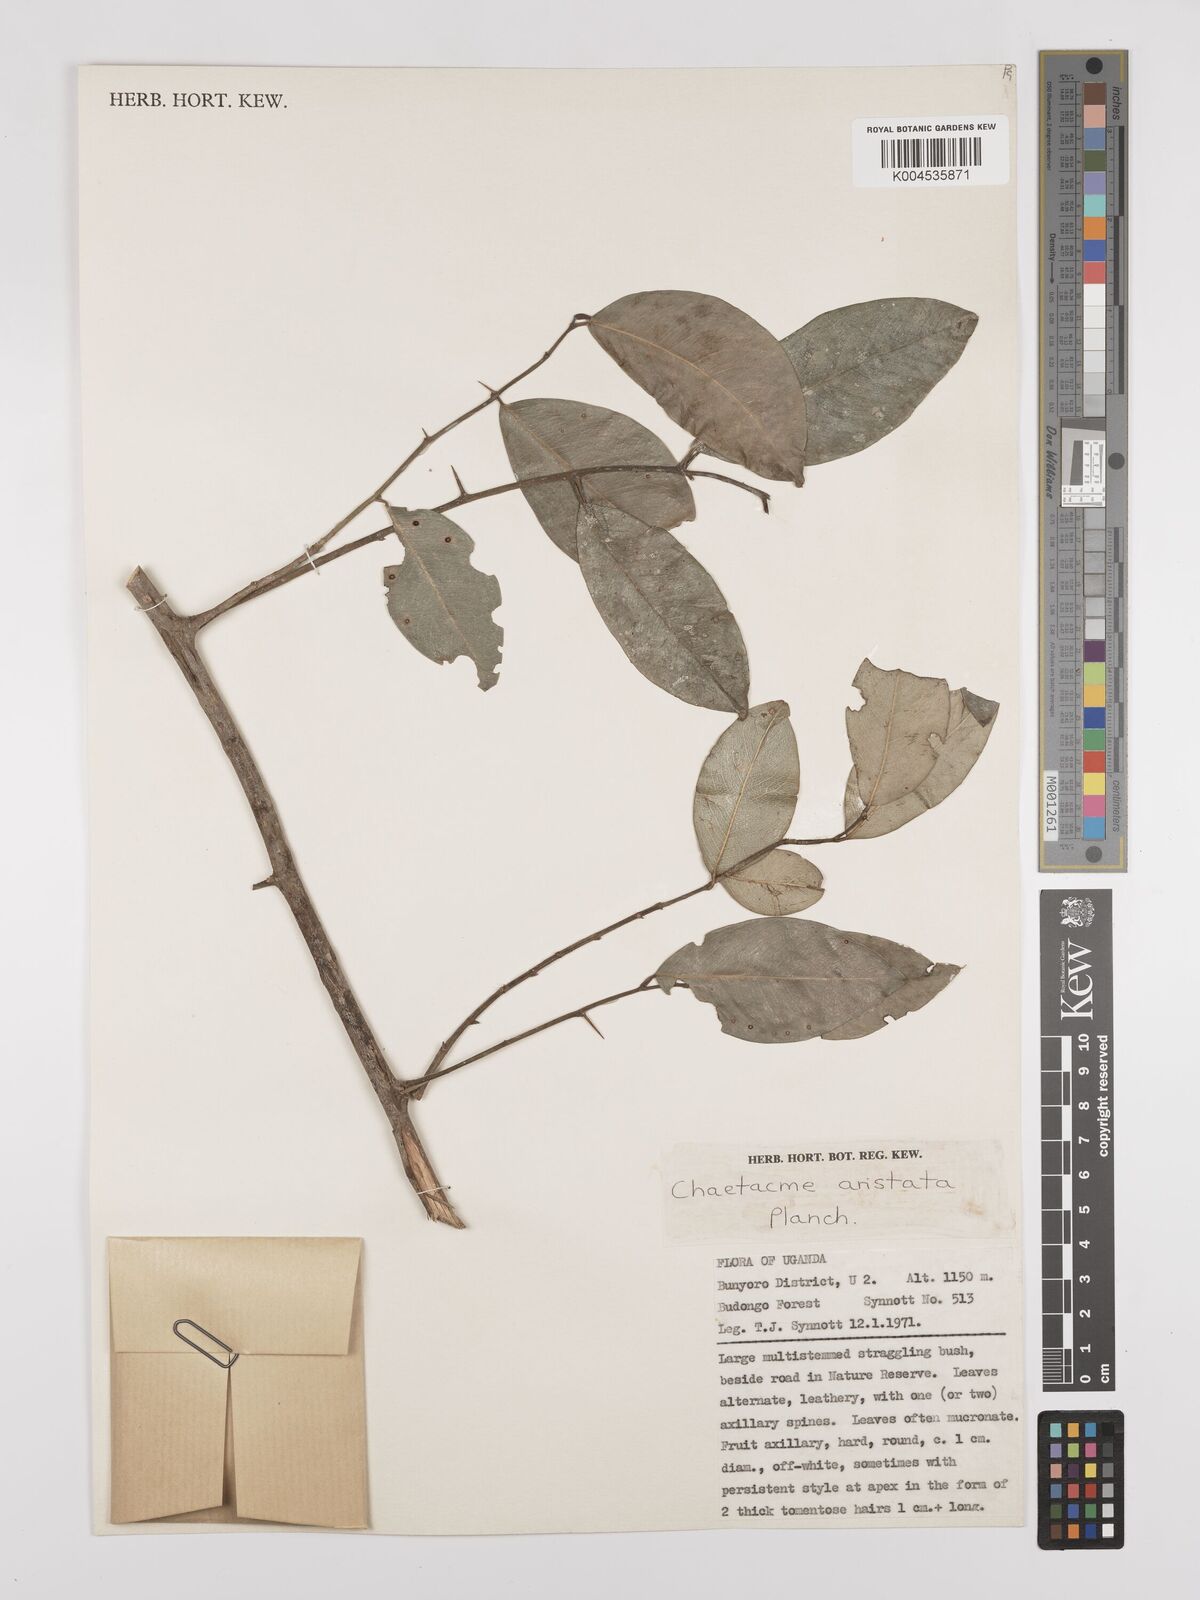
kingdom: Plantae
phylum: Tracheophyta
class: Magnoliopsida
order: Rosales
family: Cannabaceae
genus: Chaetachme
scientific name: Chaetachme aristata
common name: Thorny elm
